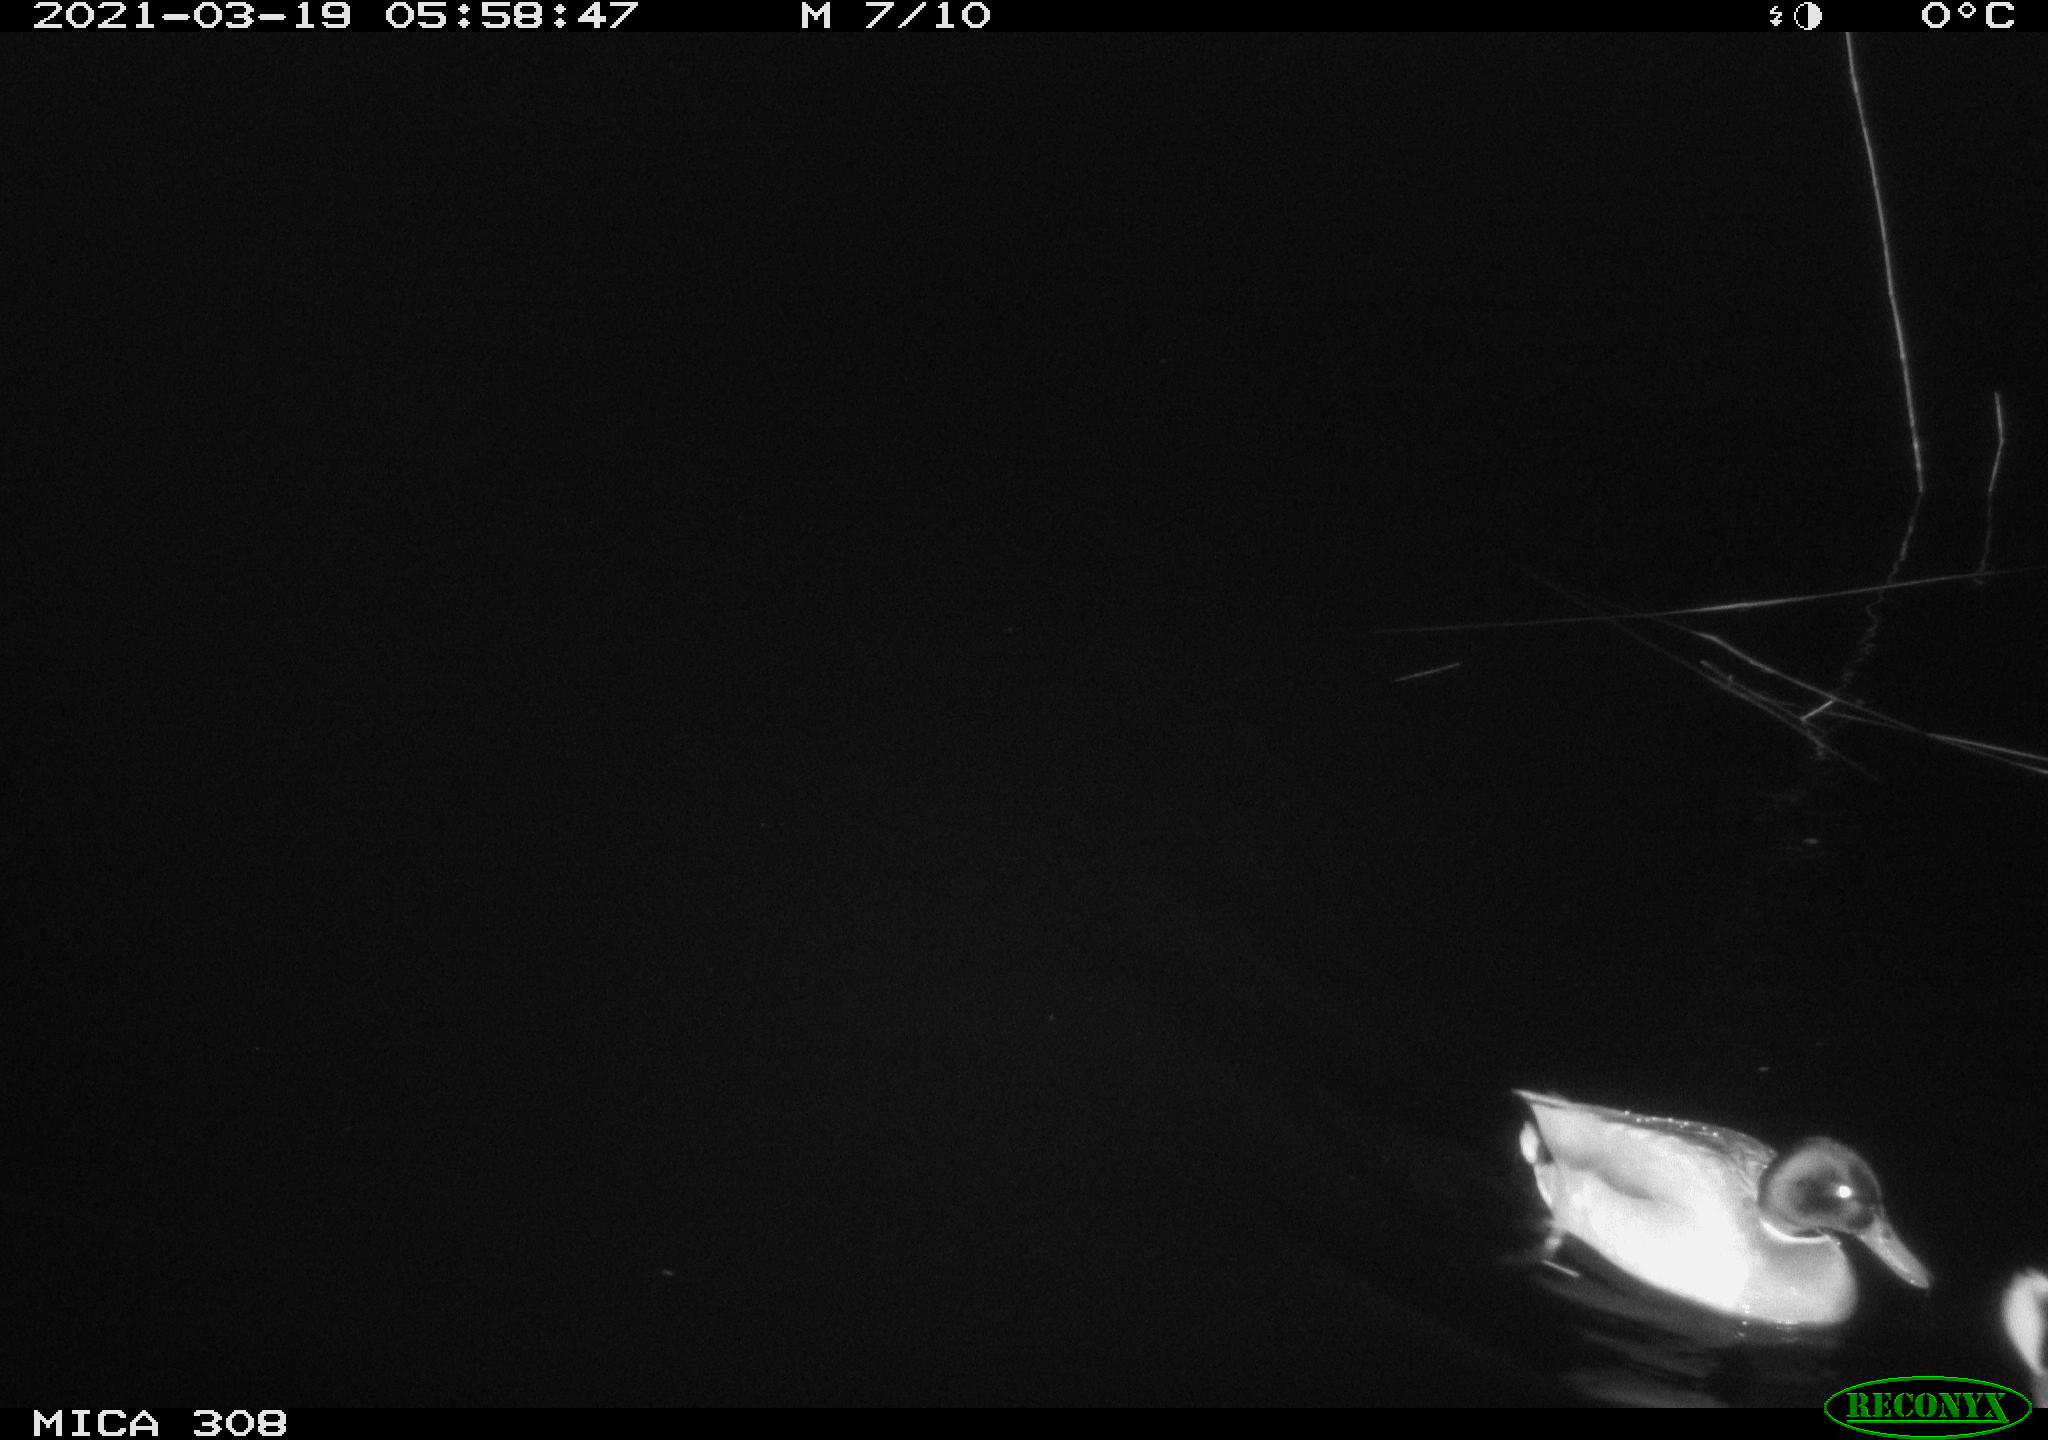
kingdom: Animalia
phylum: Chordata
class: Aves
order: Anseriformes
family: Anatidae
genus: Anas
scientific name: Anas platyrhynchos
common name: Mallard
